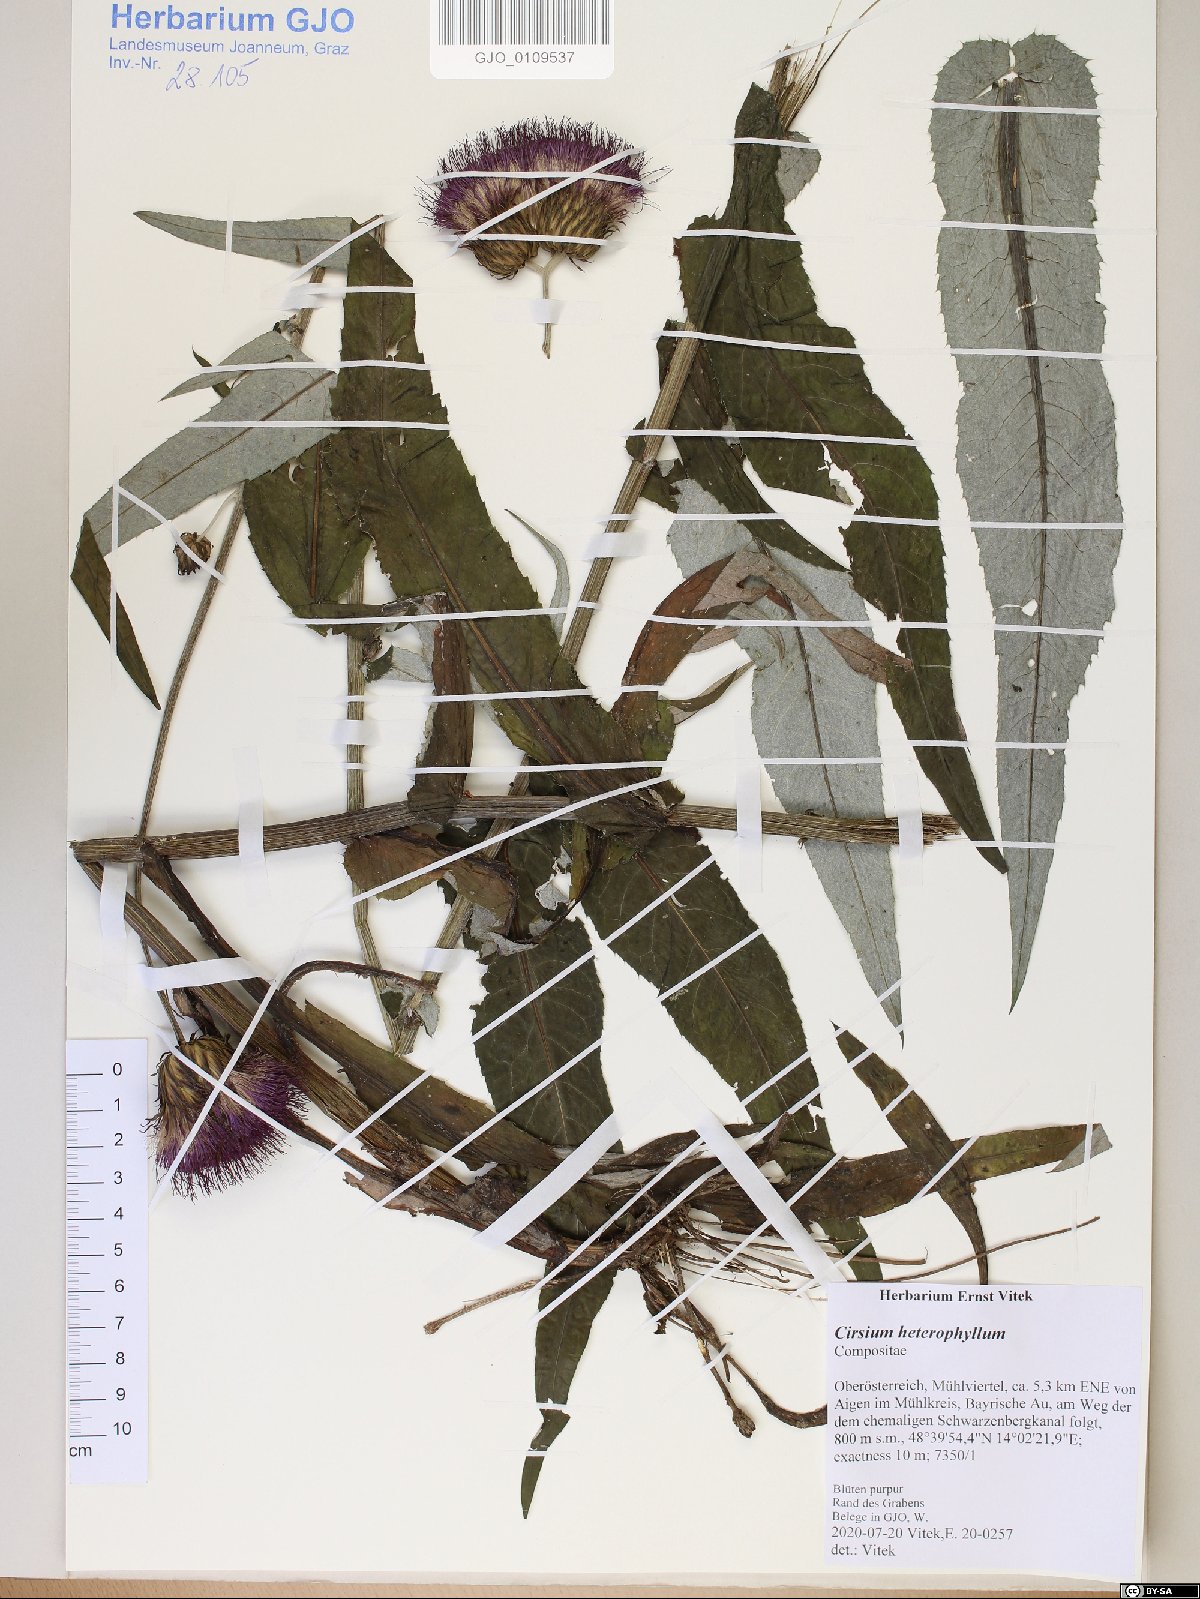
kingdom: Plantae
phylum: Tracheophyta
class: Magnoliopsida
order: Asterales
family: Asteraceae
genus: Cirsium
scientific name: Cirsium heterophyllum
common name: Melancholy thistle
